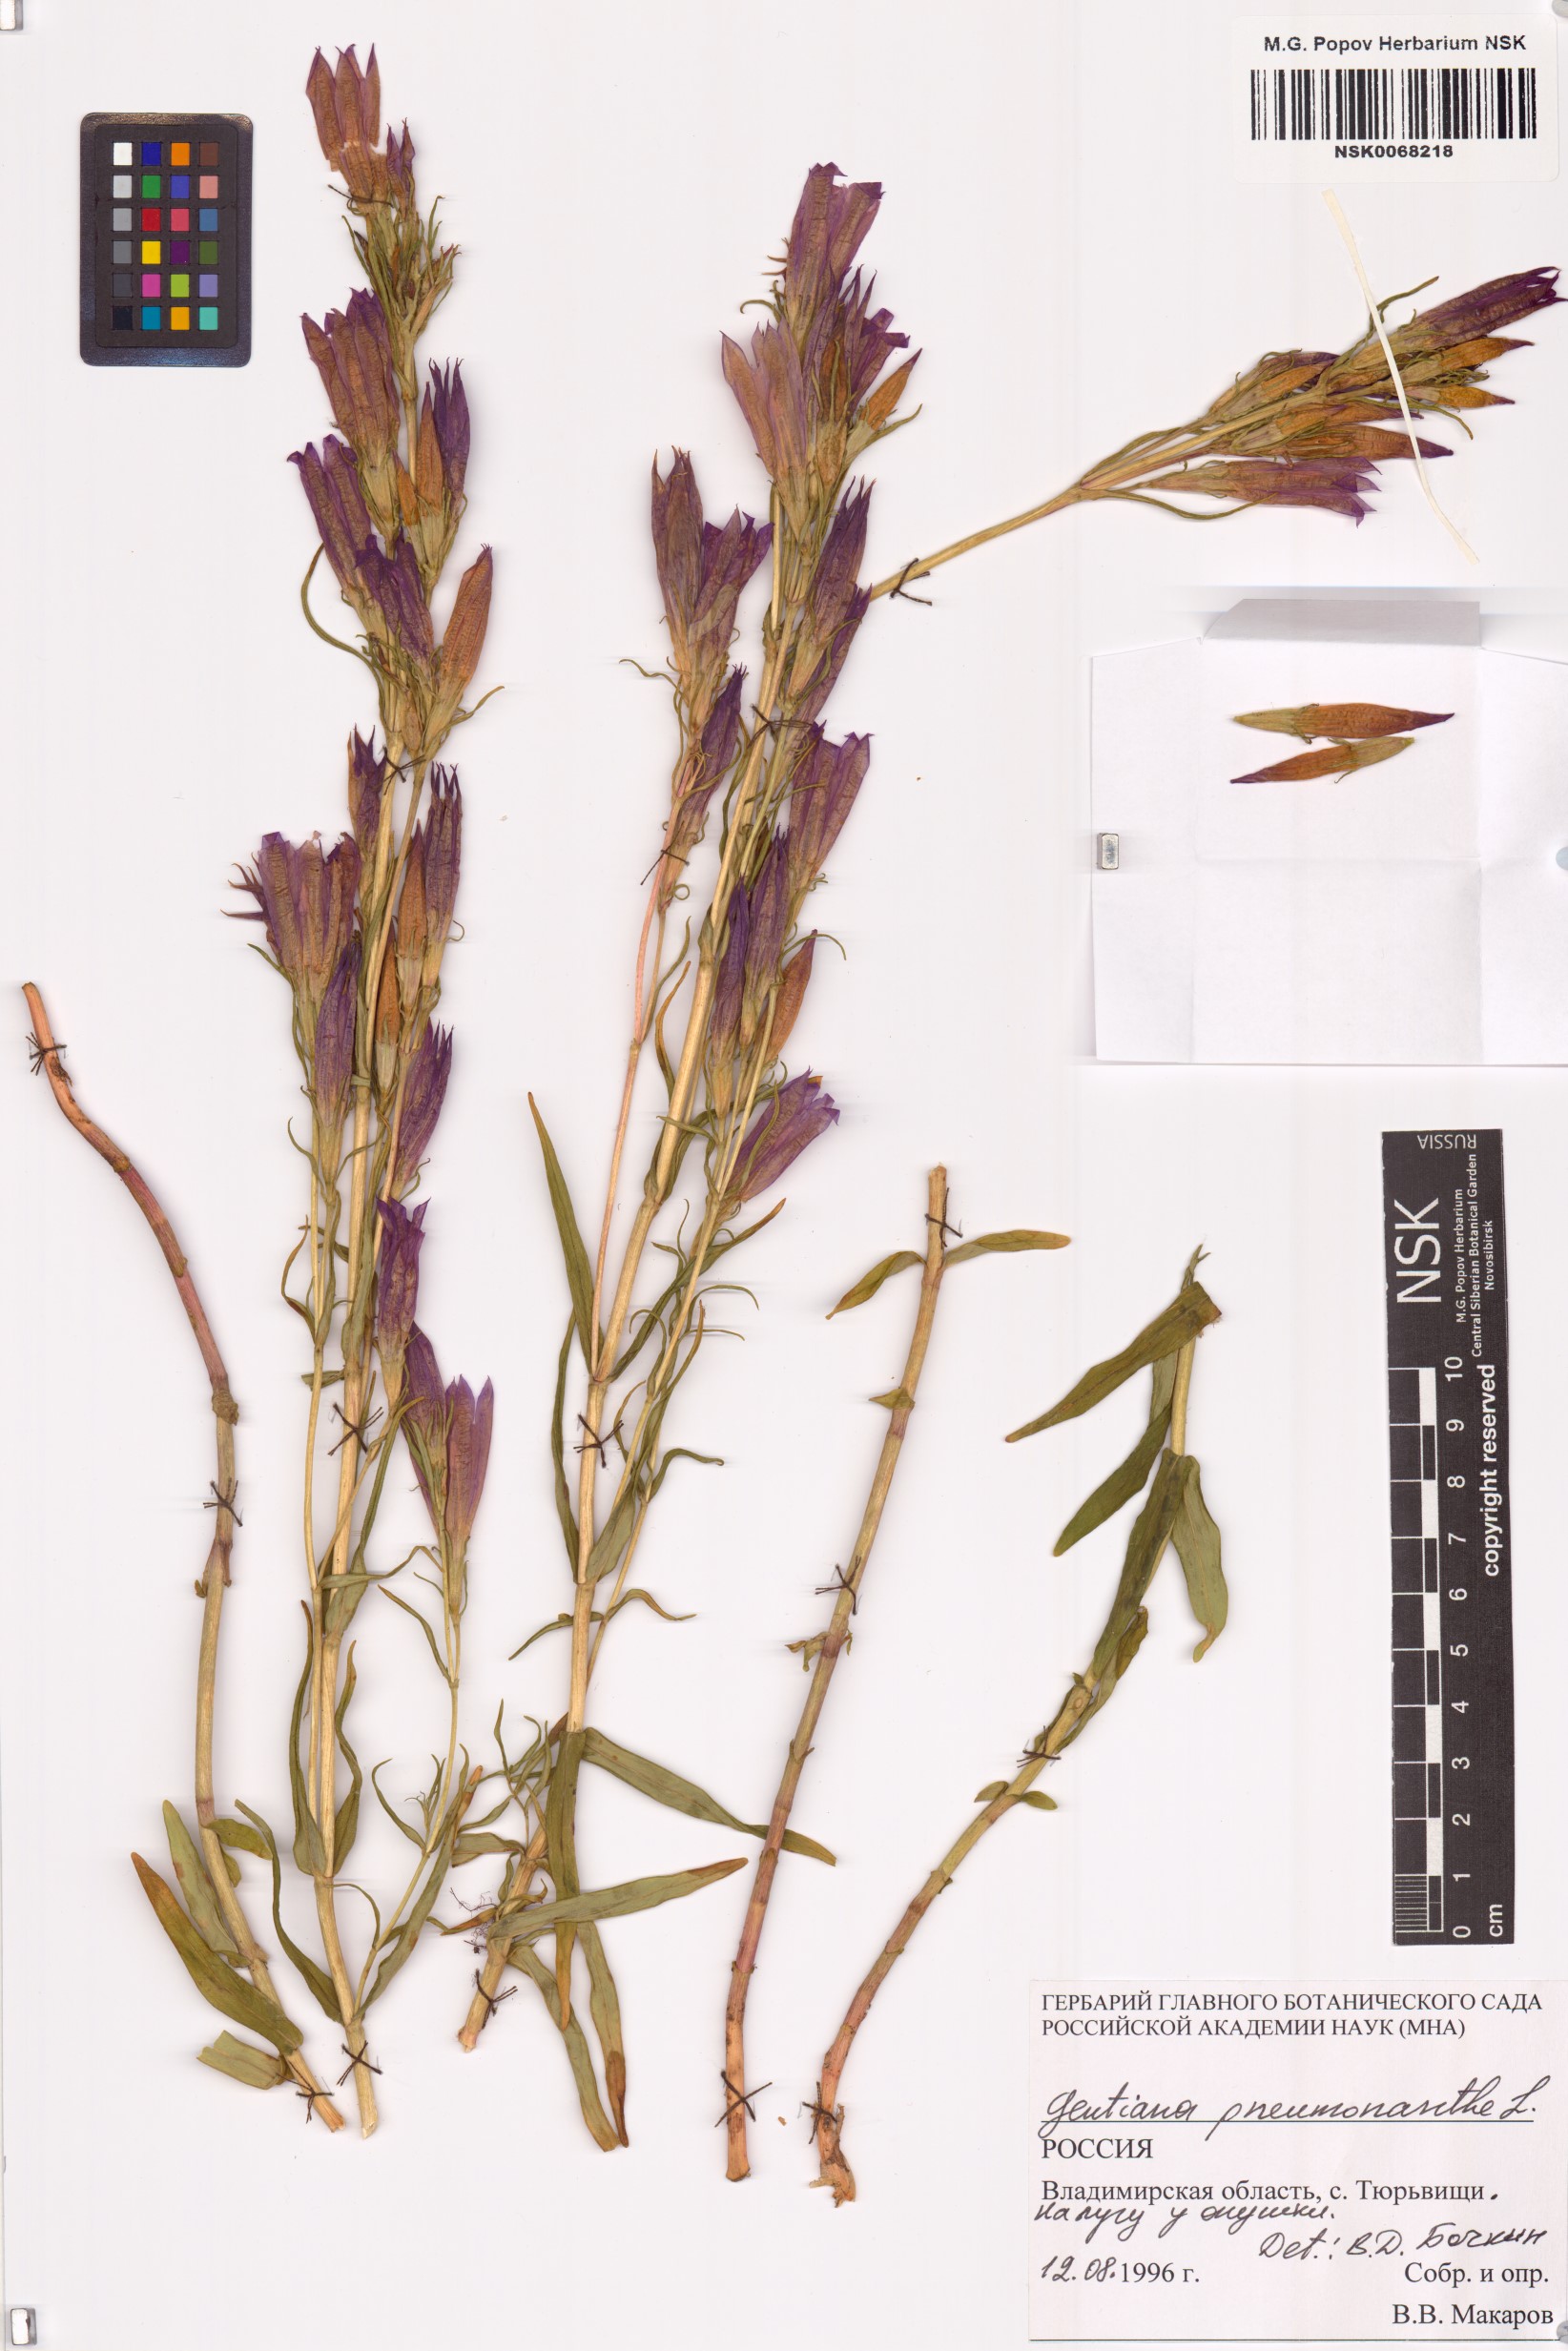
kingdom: Plantae
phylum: Tracheophyta
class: Magnoliopsida
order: Gentianales
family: Gentianaceae
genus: Gentiana
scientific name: Gentiana pneumonanthe
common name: Marsh gentian
